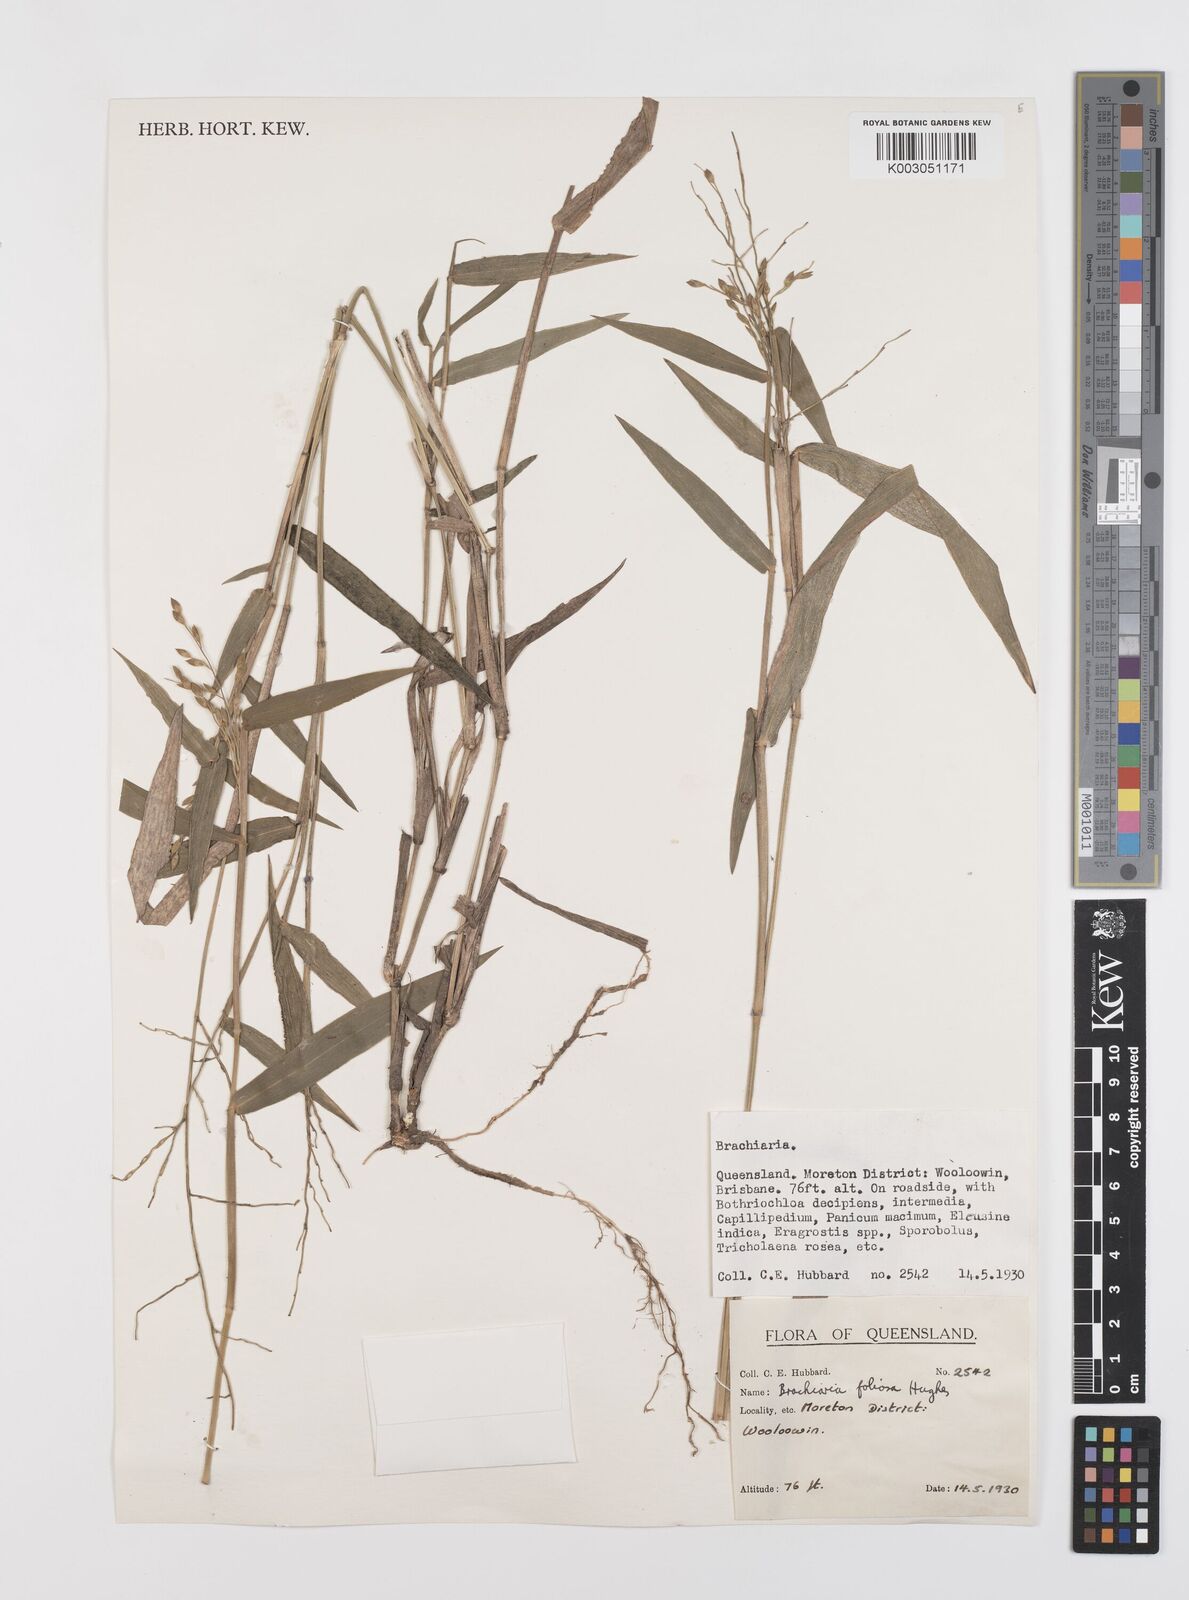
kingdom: Plantae
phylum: Tracheophyta
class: Liliopsida
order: Poales
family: Poaceae
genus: Urochloa
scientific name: Urochloa foliosa
